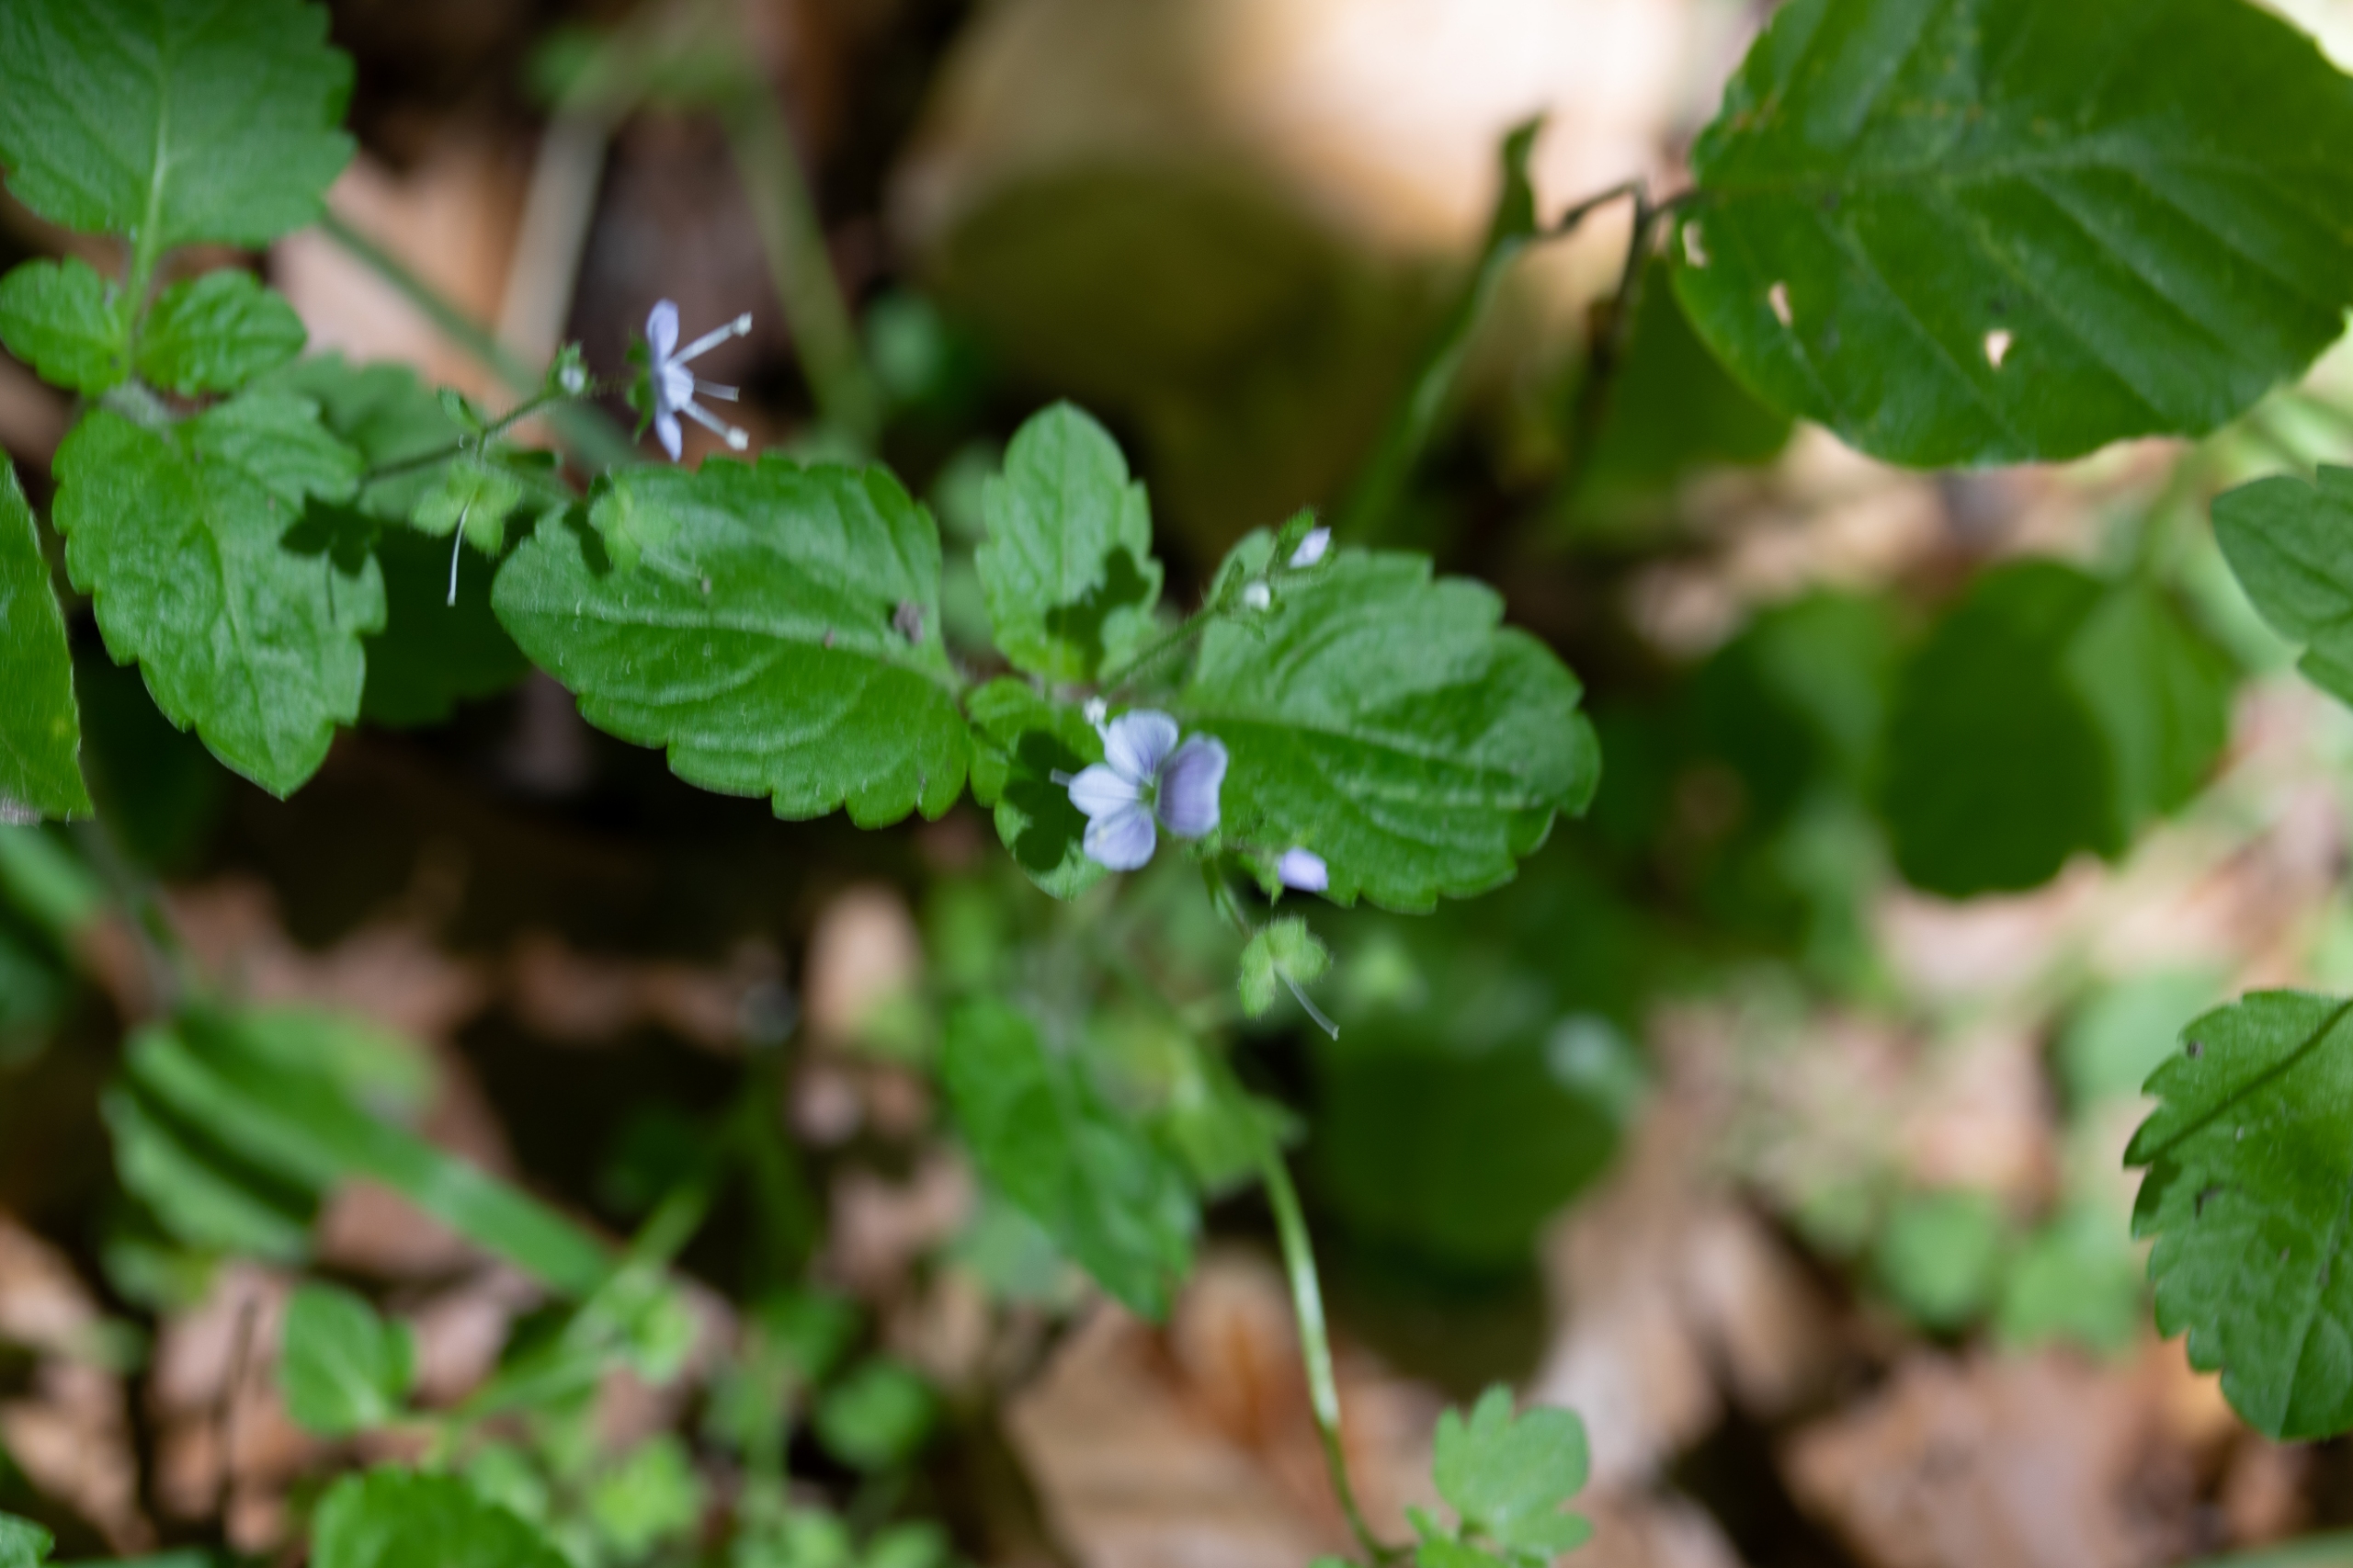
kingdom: Plantae
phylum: Tracheophyta
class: Magnoliopsida
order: Lamiales
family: Plantaginaceae
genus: Veronica
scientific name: Veronica montana
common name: Bjerg-ærenpris
